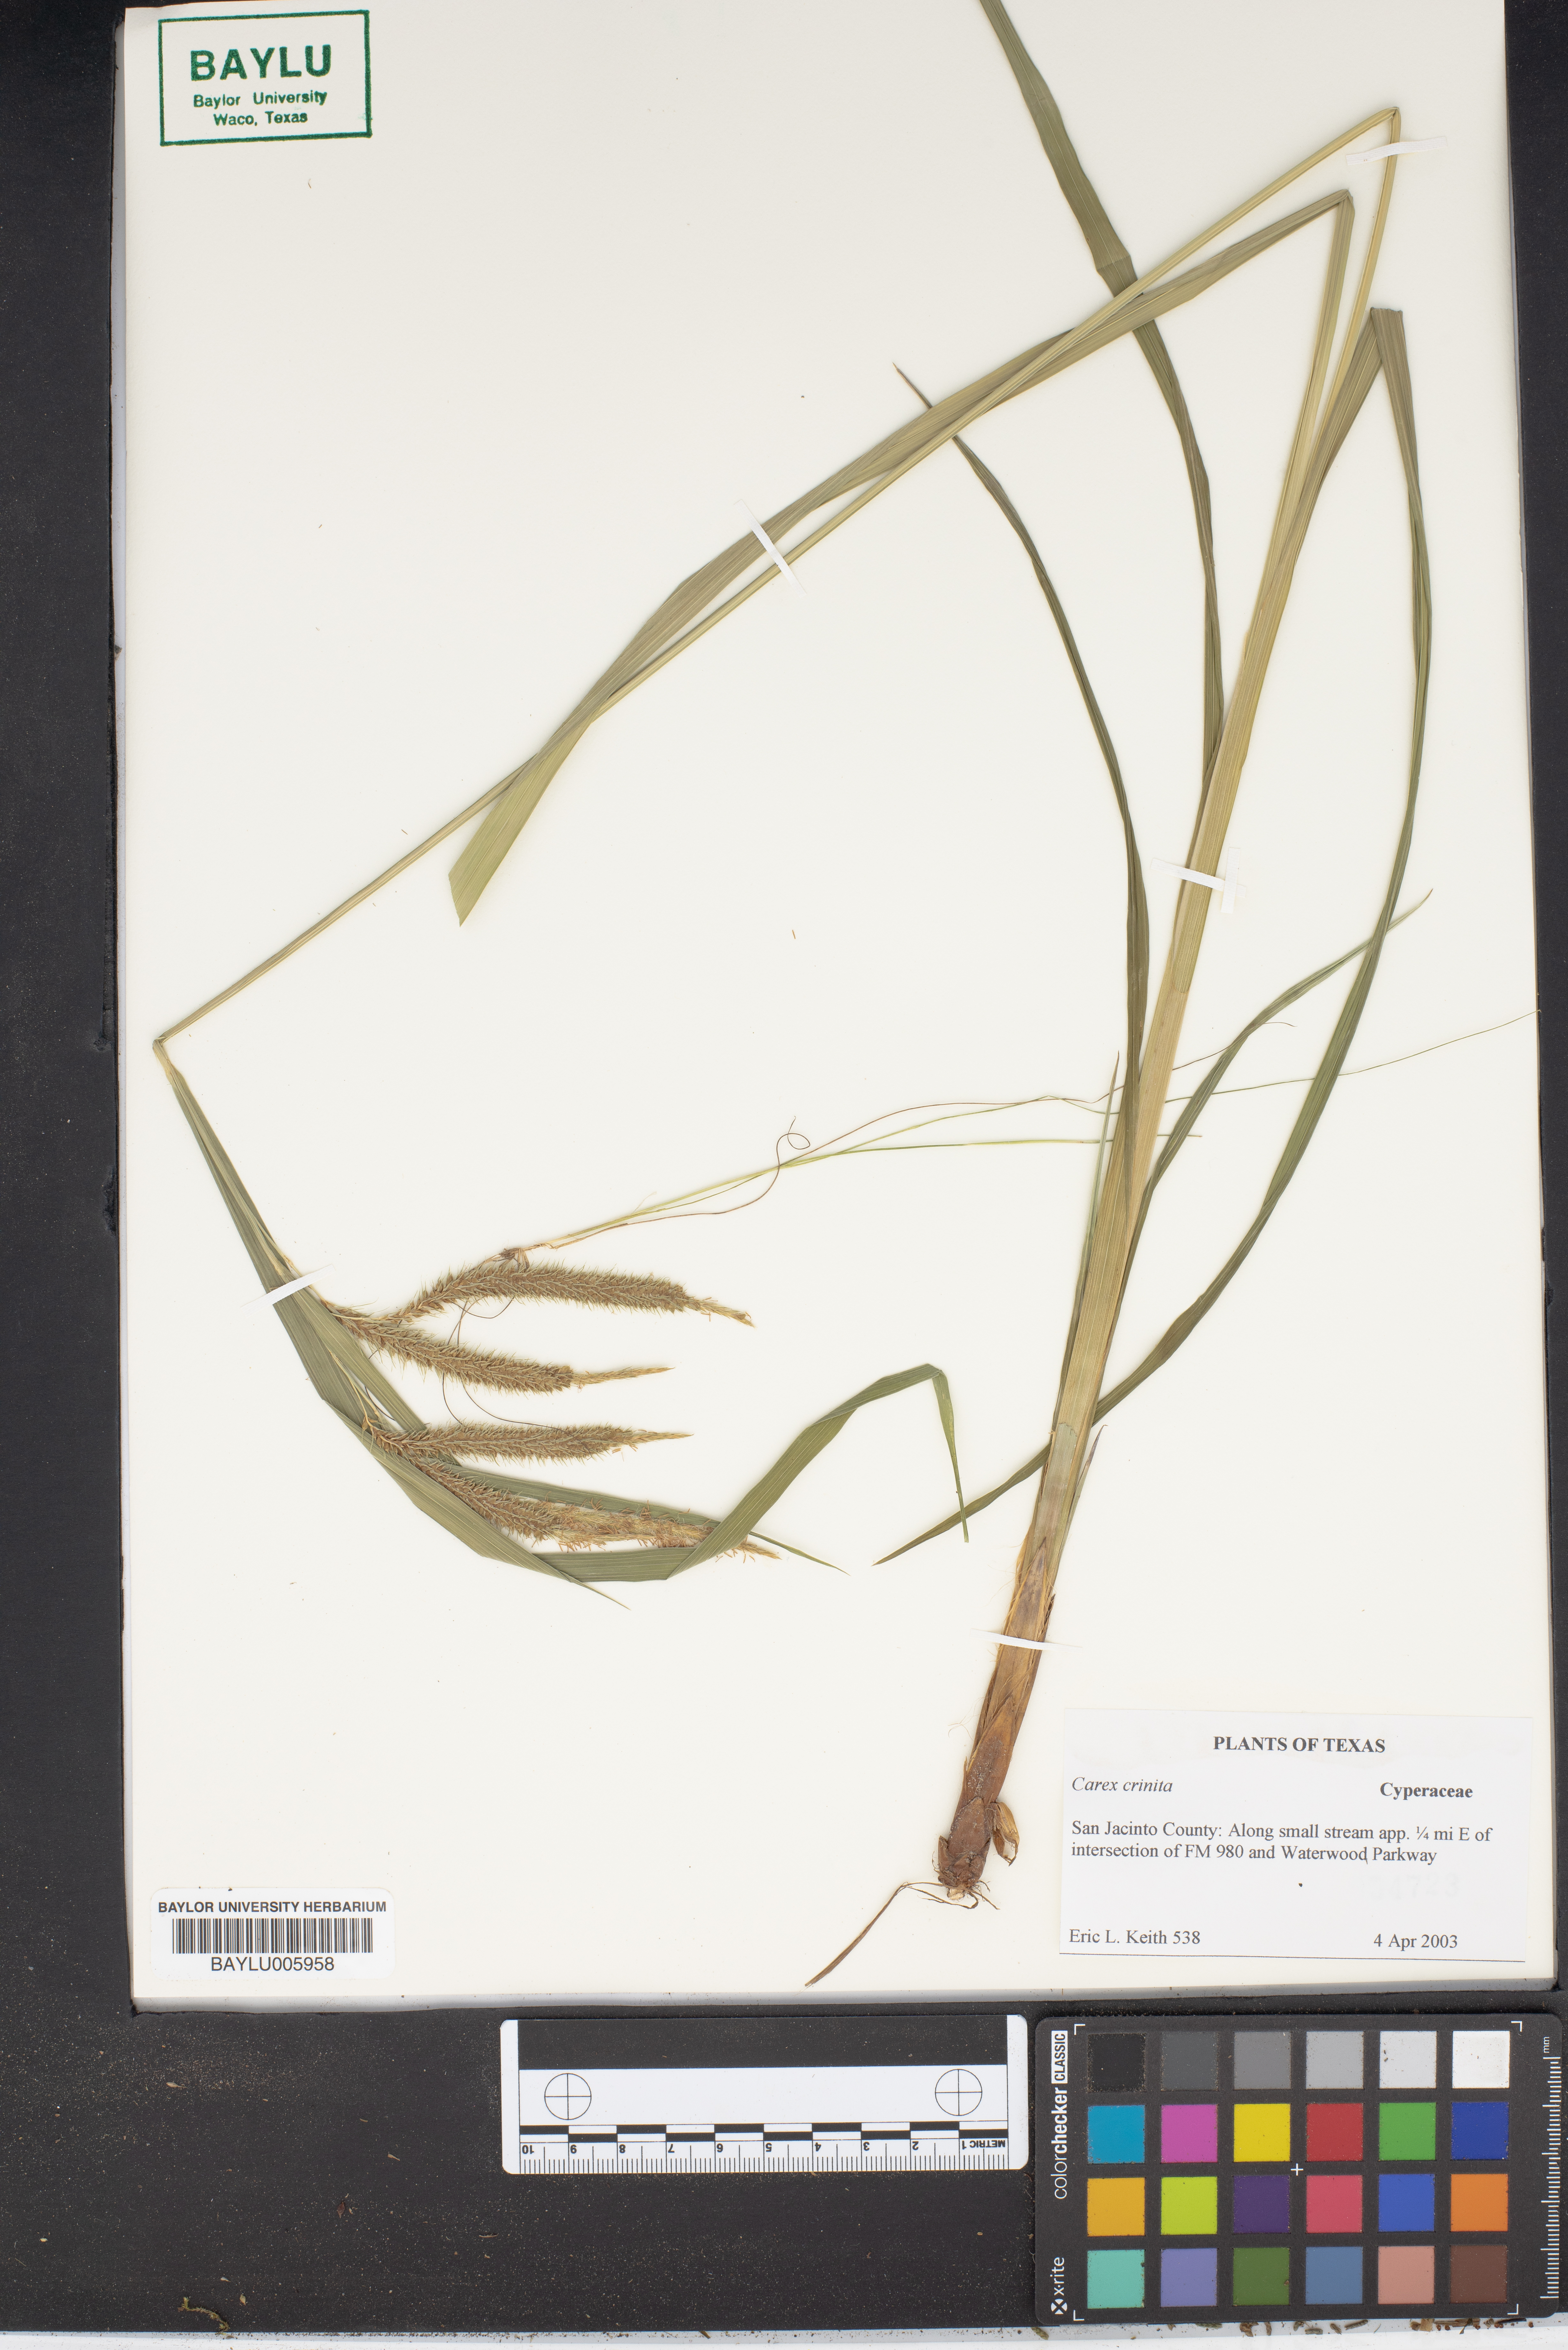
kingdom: Plantae
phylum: Tracheophyta
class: Liliopsida
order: Poales
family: Cyperaceae
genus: Carex
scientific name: Carex crinita
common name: Fringed sedge
